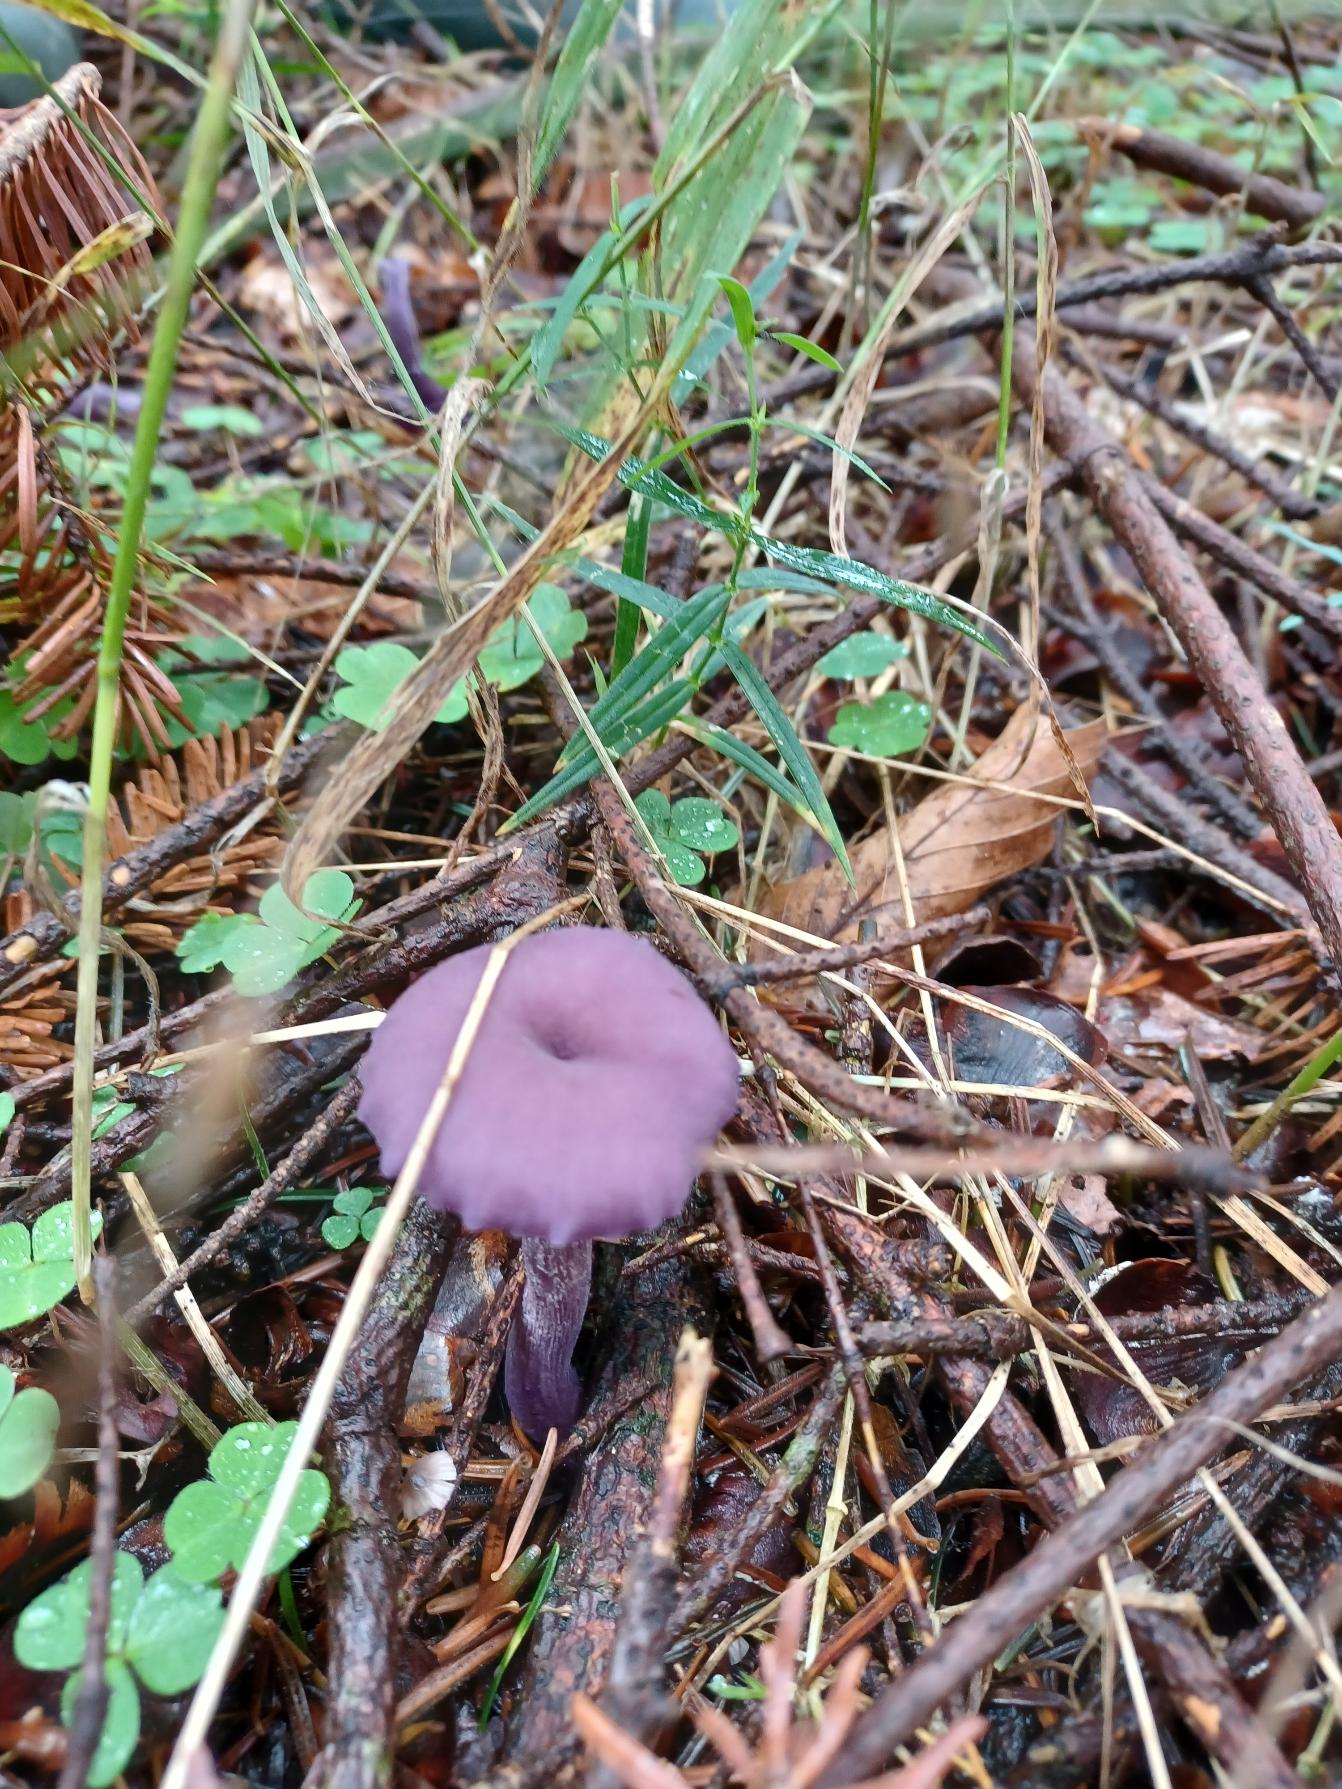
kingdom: Fungi
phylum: Basidiomycota
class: Agaricomycetes
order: Agaricales
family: Hydnangiaceae
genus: Laccaria
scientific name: Laccaria amethystina
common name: Violet ametysthat
